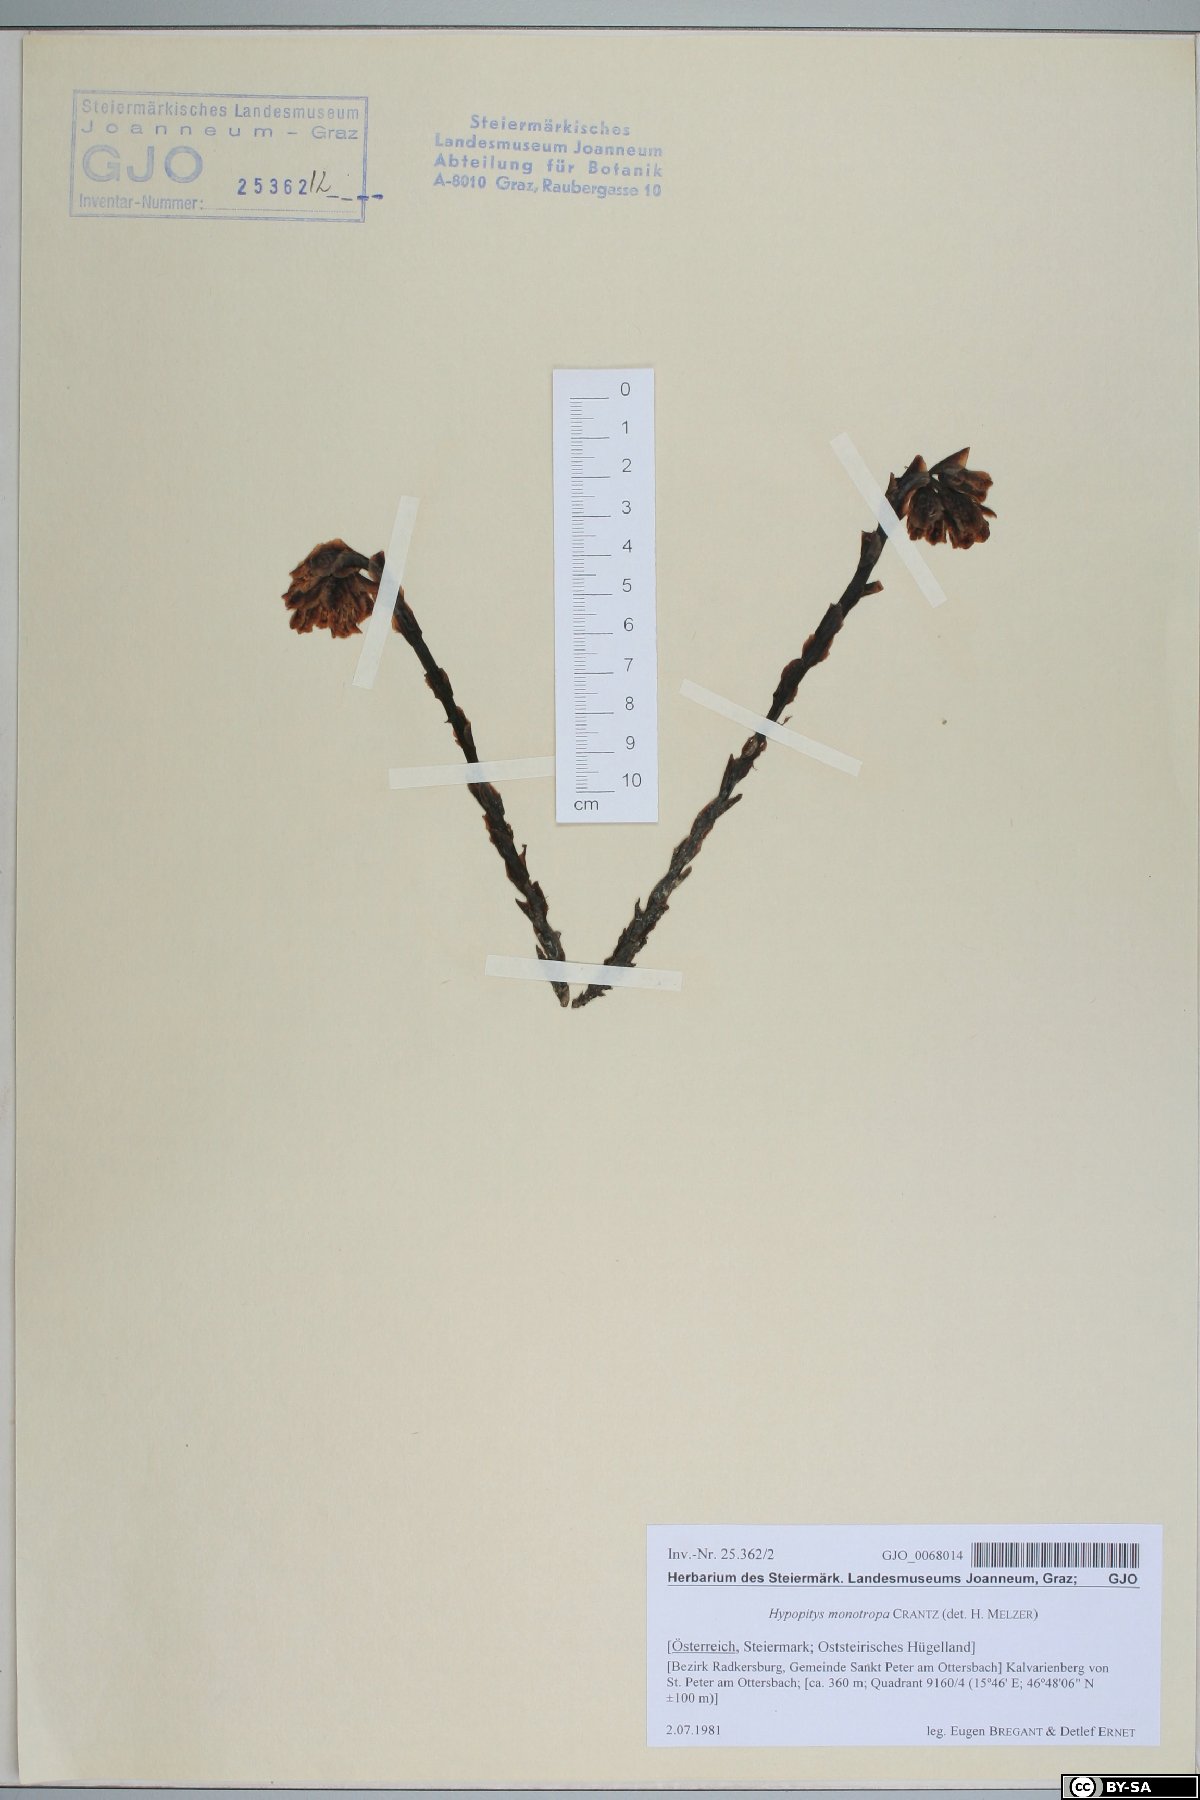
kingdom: Plantae
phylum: Tracheophyta
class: Magnoliopsida
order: Ericales
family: Ericaceae
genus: Hypopitys
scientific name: Hypopitys monotropa
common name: Yellow bird's-nest
